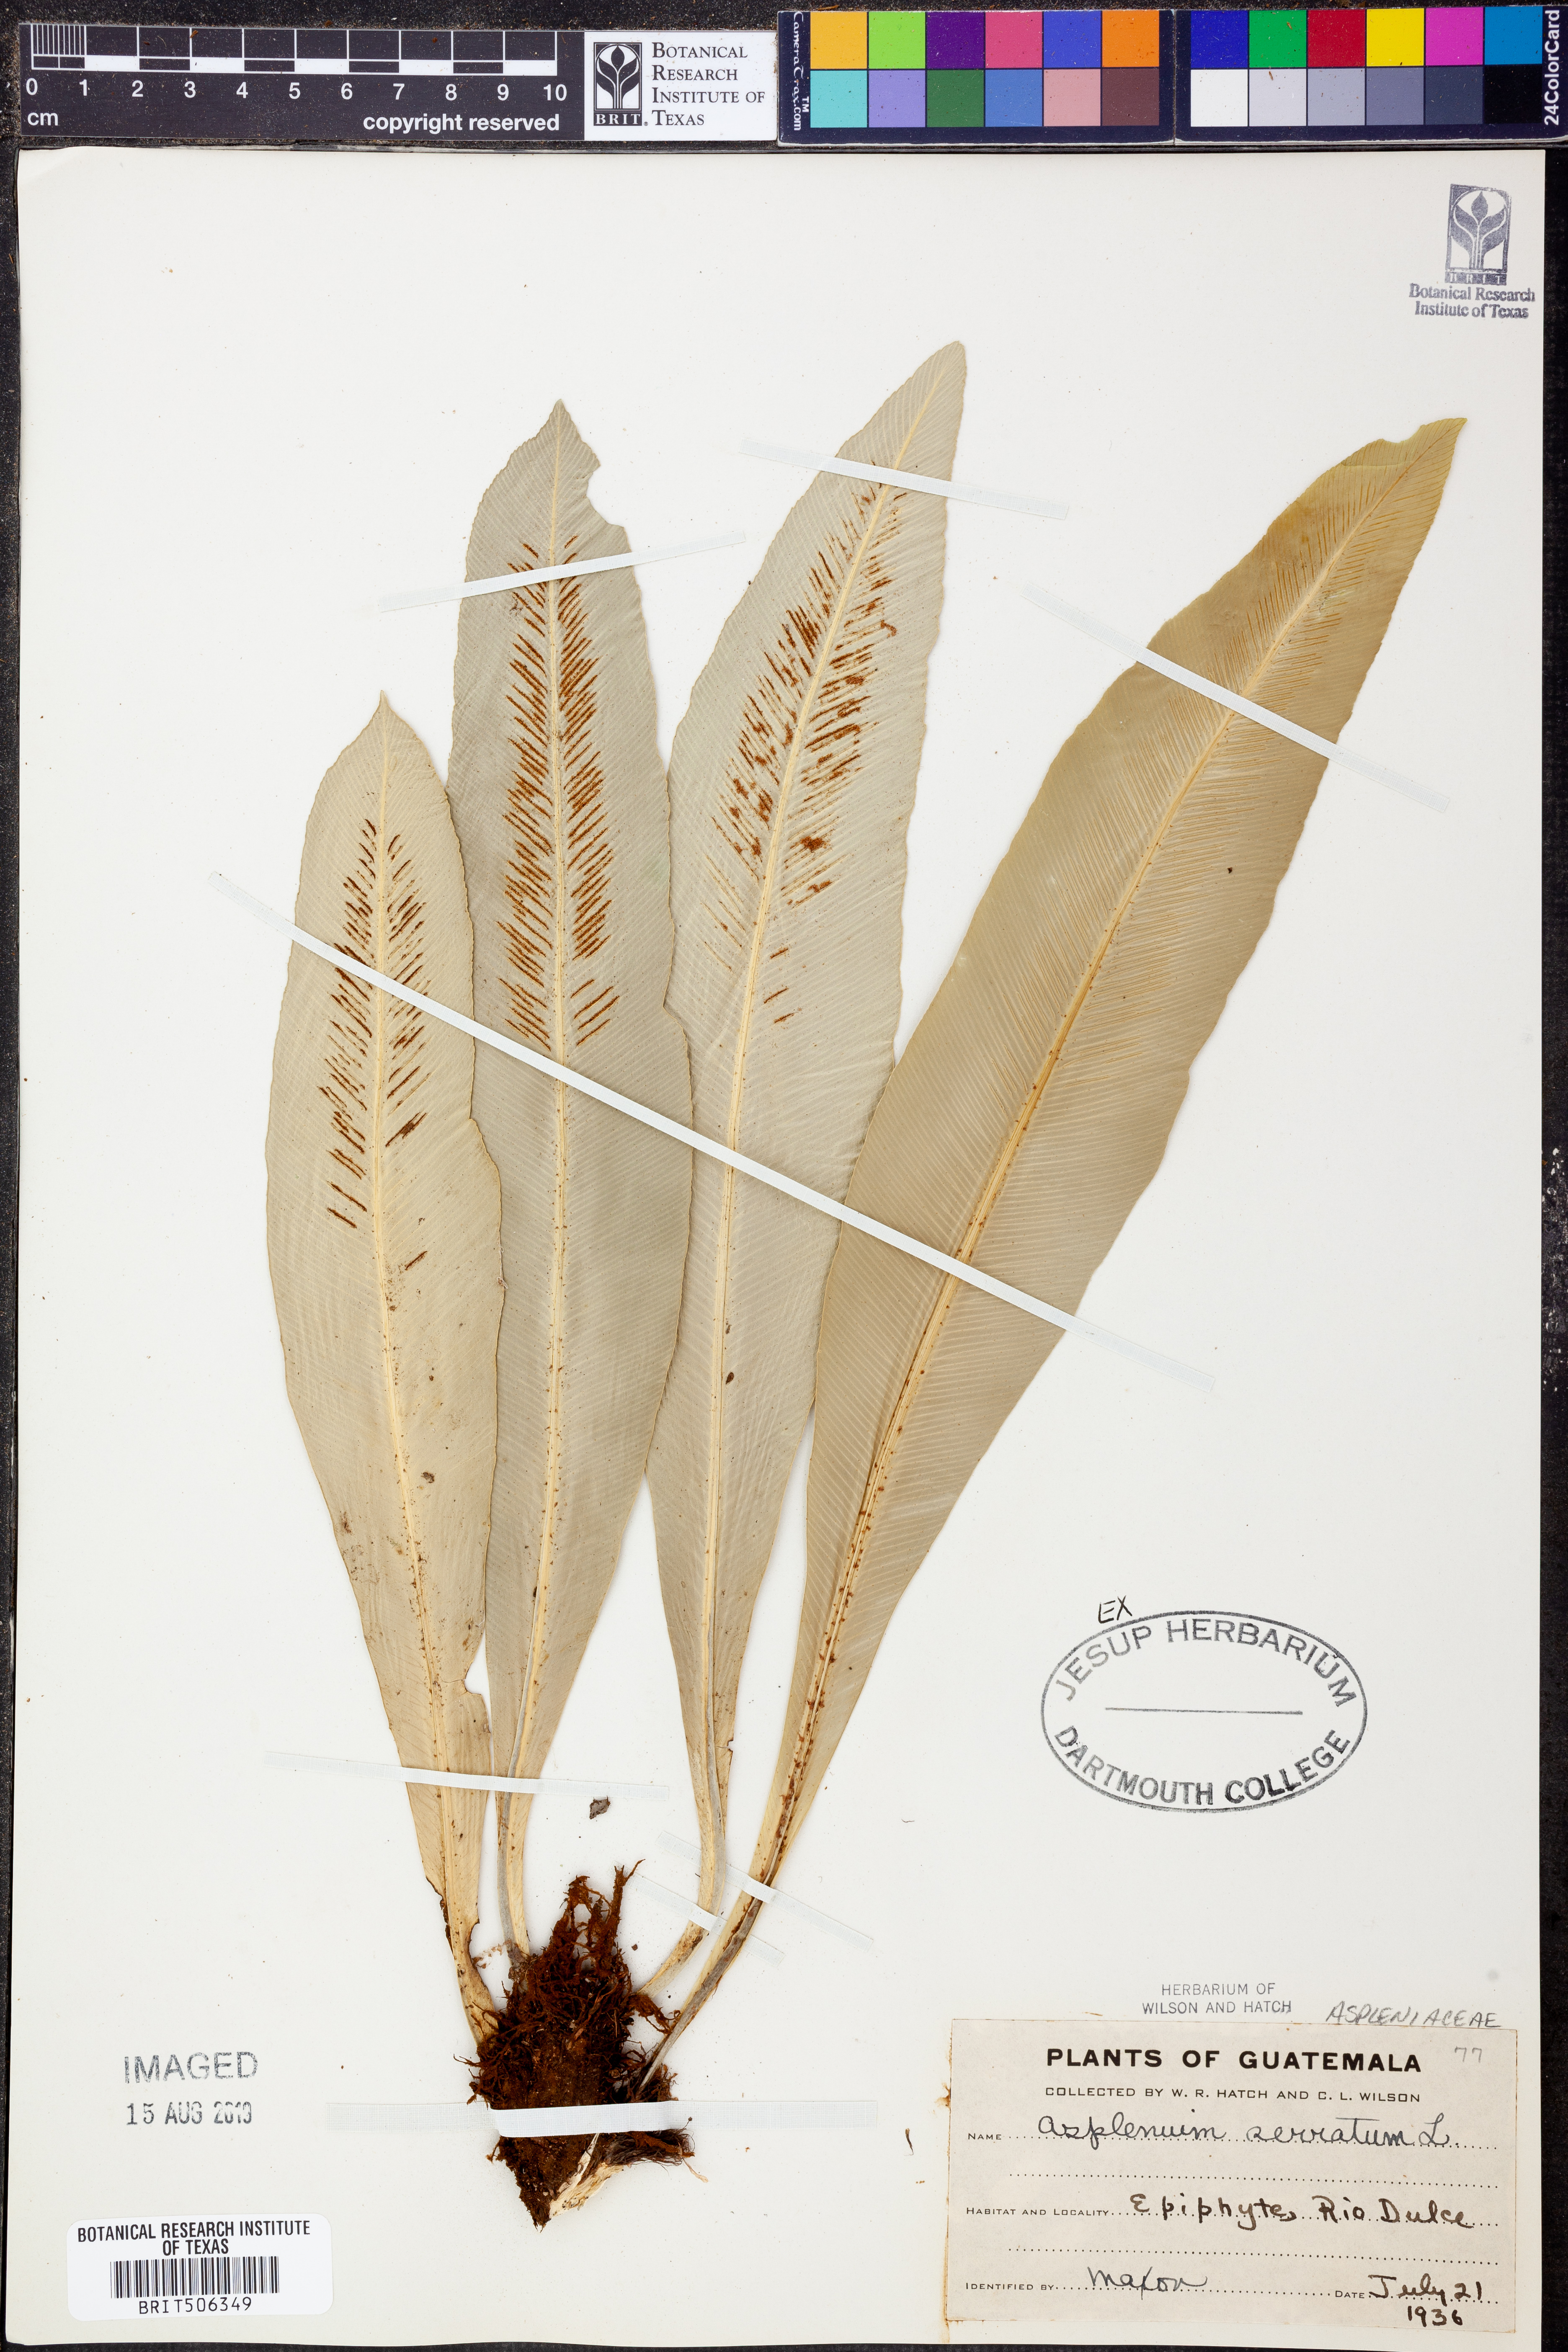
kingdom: Plantae
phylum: Tracheophyta
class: Polypodiopsida
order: Polypodiales
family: Aspleniaceae
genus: Asplenium
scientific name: Asplenium serratum
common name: Wild birdnest fern
